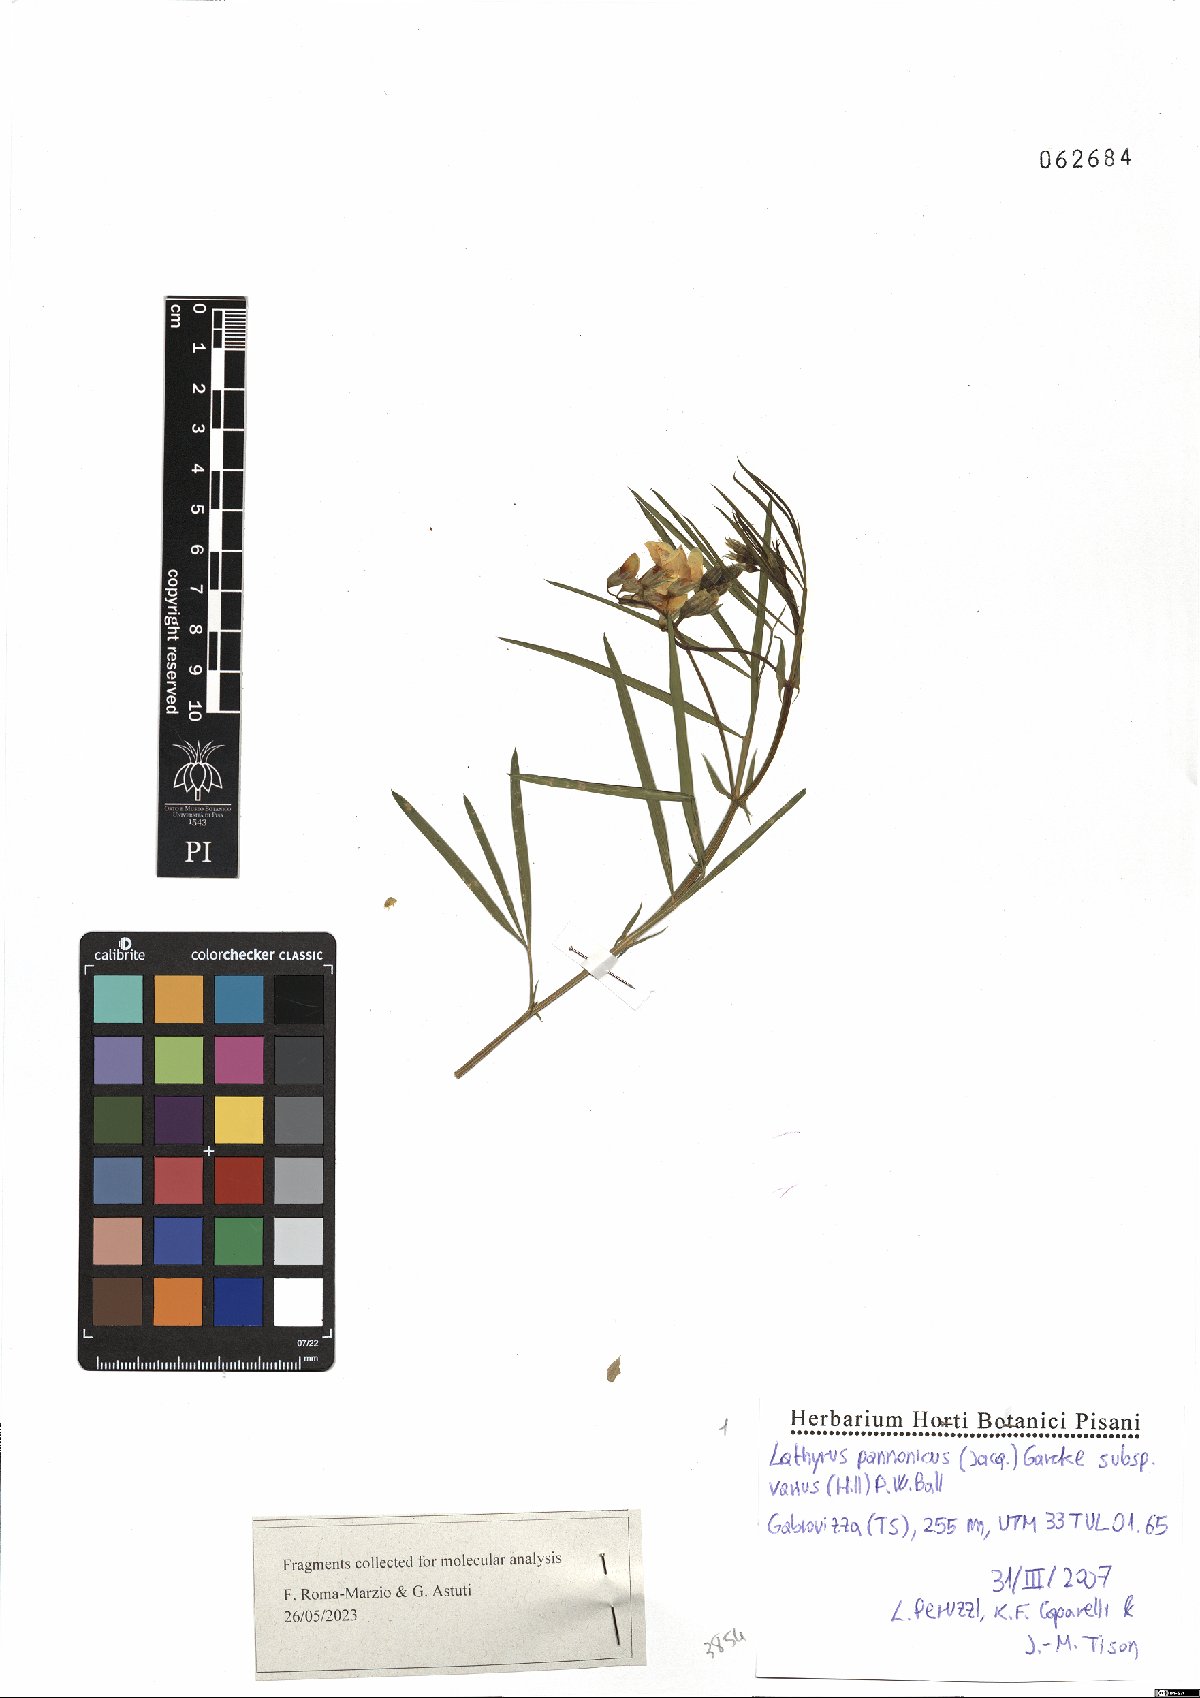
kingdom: Plantae
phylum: Tracheophyta
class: Magnoliopsida
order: Fabales
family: Fabaceae
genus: Lathyrus
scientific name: Lathyrus pannonicus
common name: Pea
